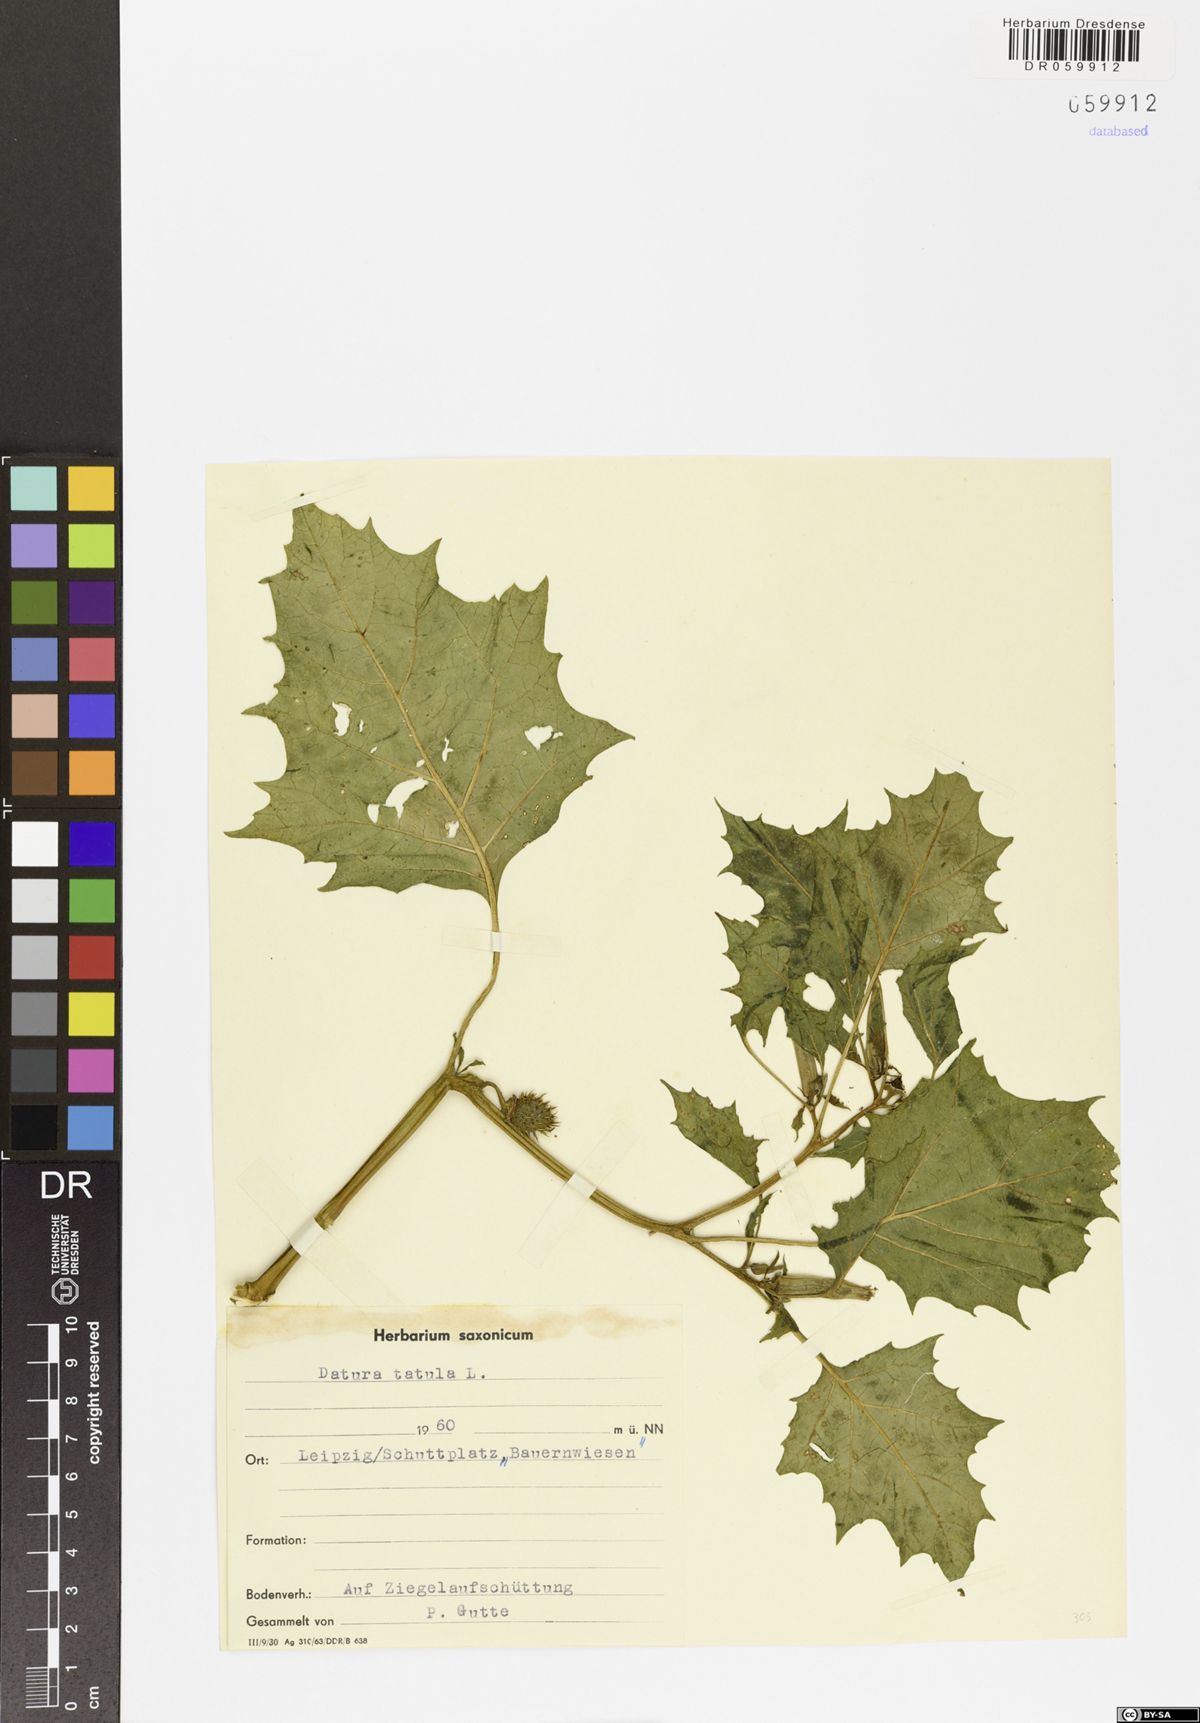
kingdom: Plantae
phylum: Tracheophyta
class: Magnoliopsida
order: Solanales
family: Solanaceae
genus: Datura
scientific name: Datura stramonium
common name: Thorn-apple
